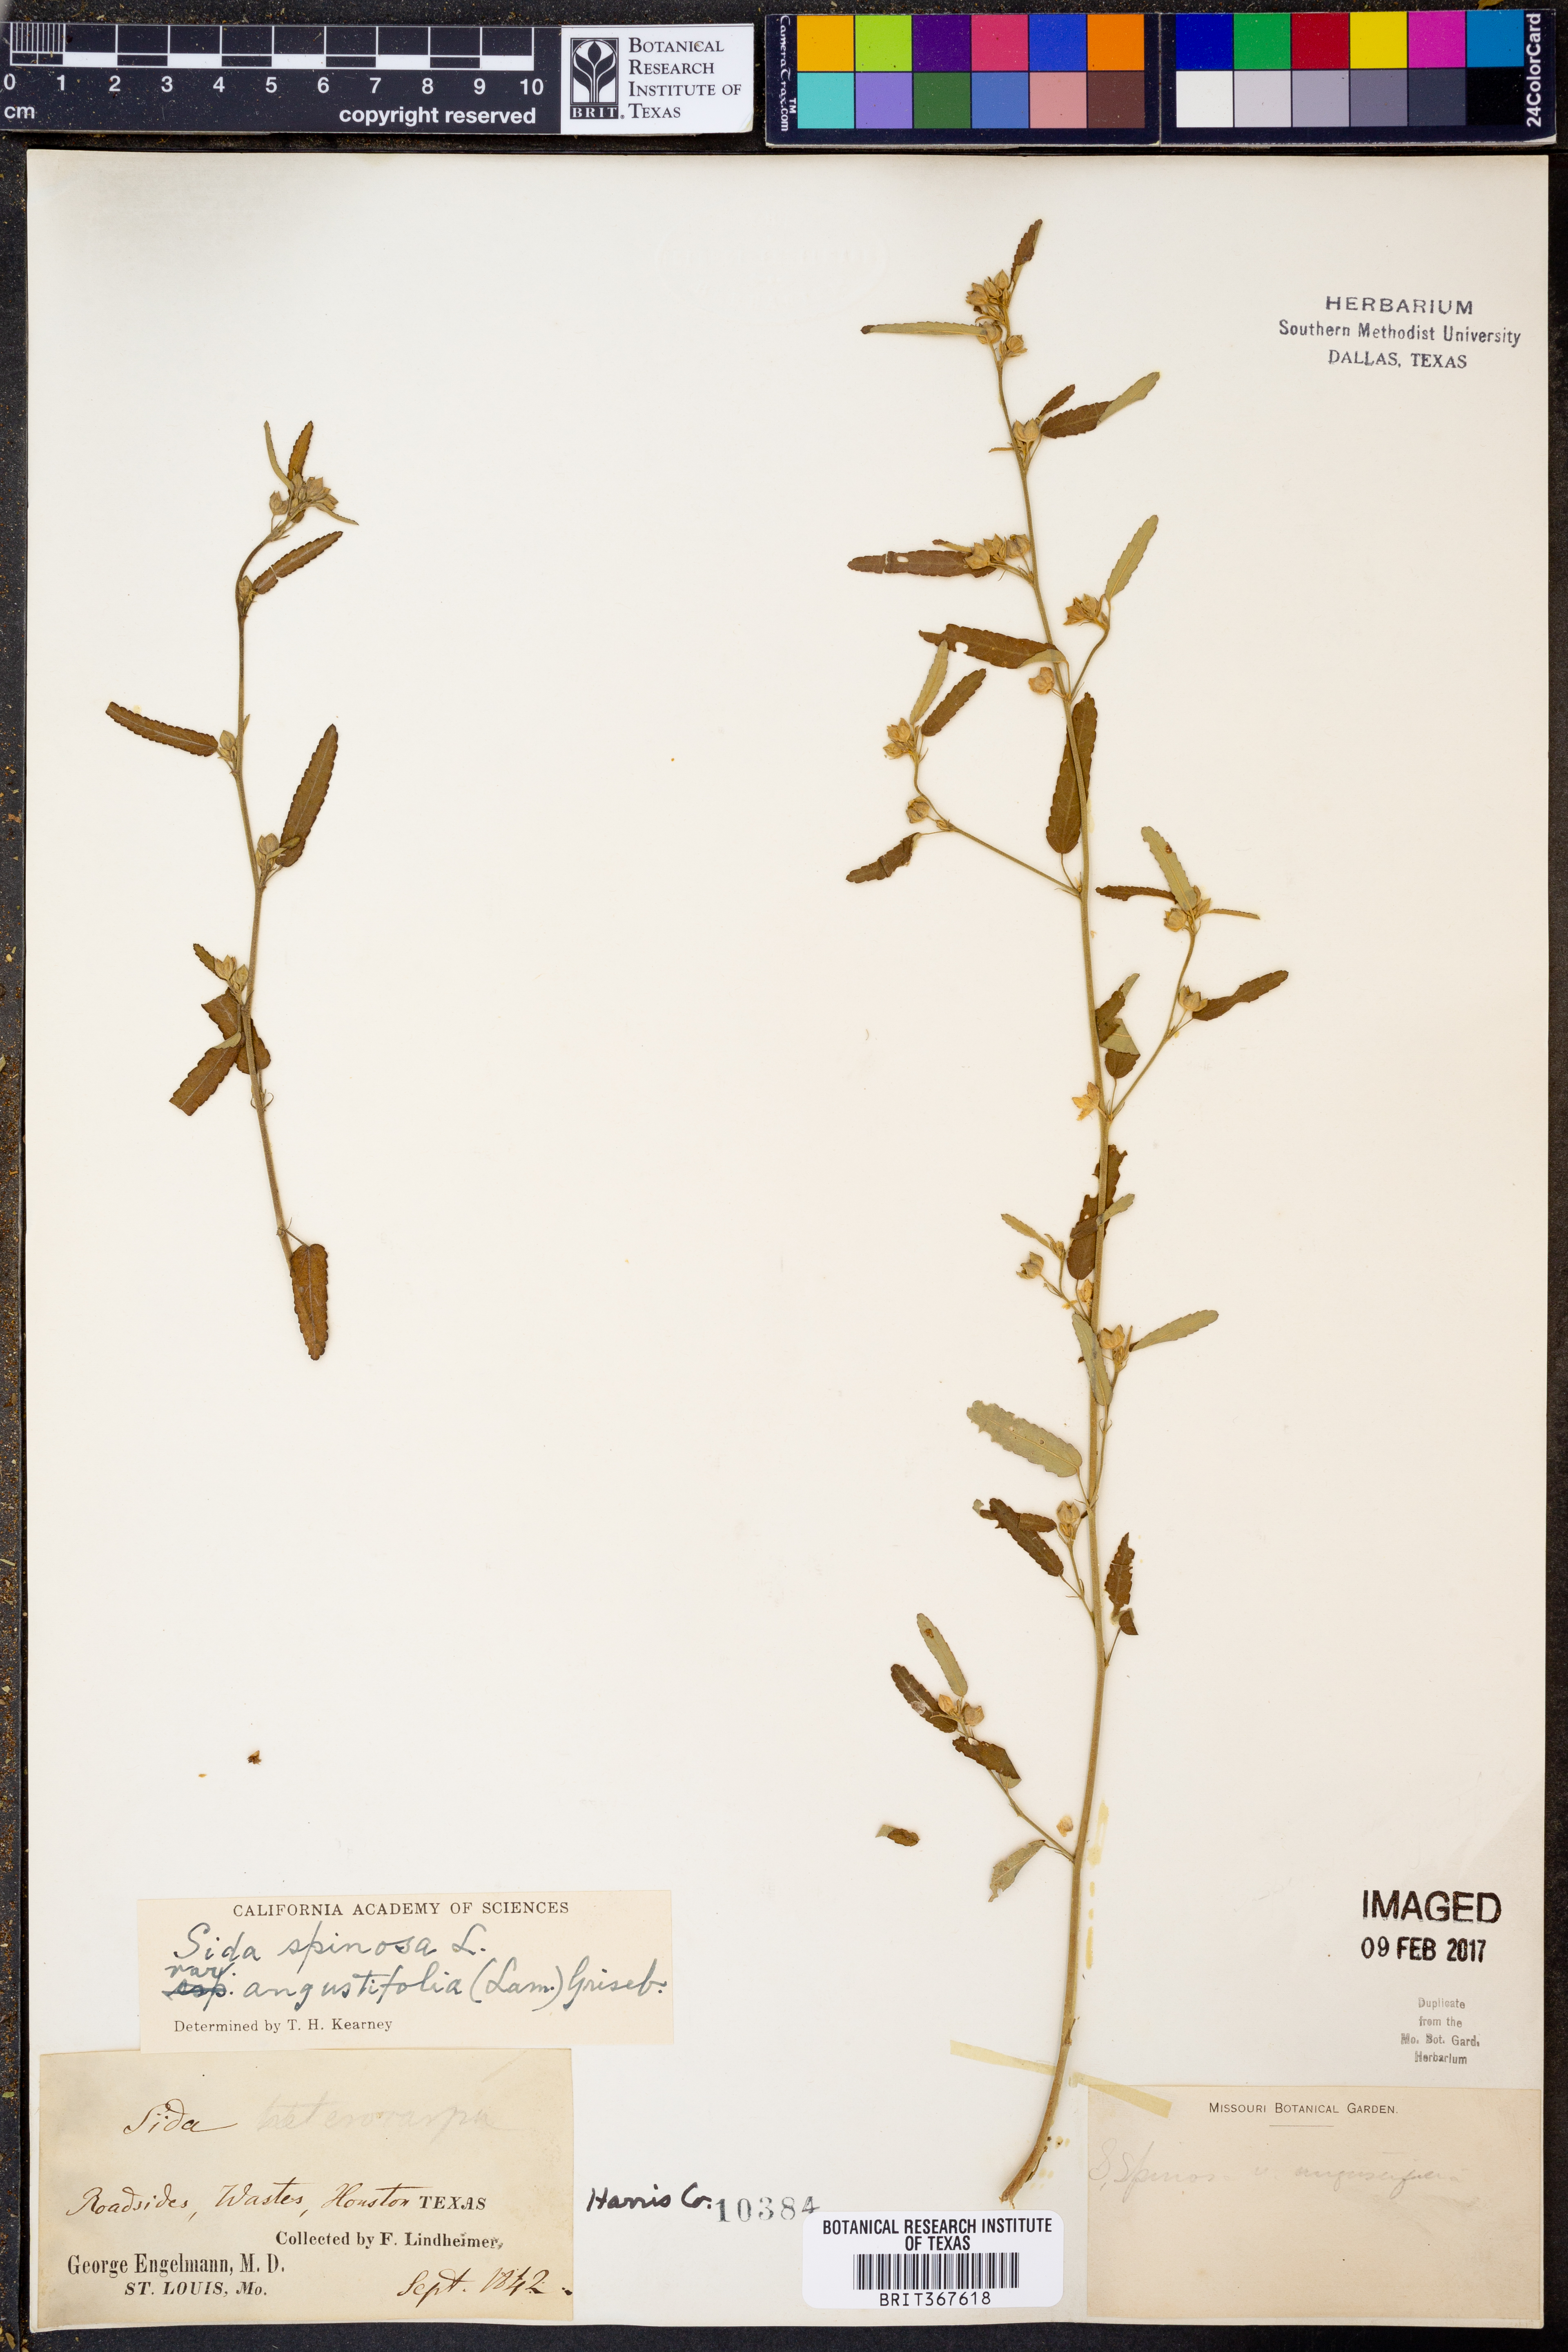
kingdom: Plantae
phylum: Tracheophyta
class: Magnoliopsida
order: Malvales
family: Malvaceae
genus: Sida
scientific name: Sida spinosa
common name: Prickly fanpetals
